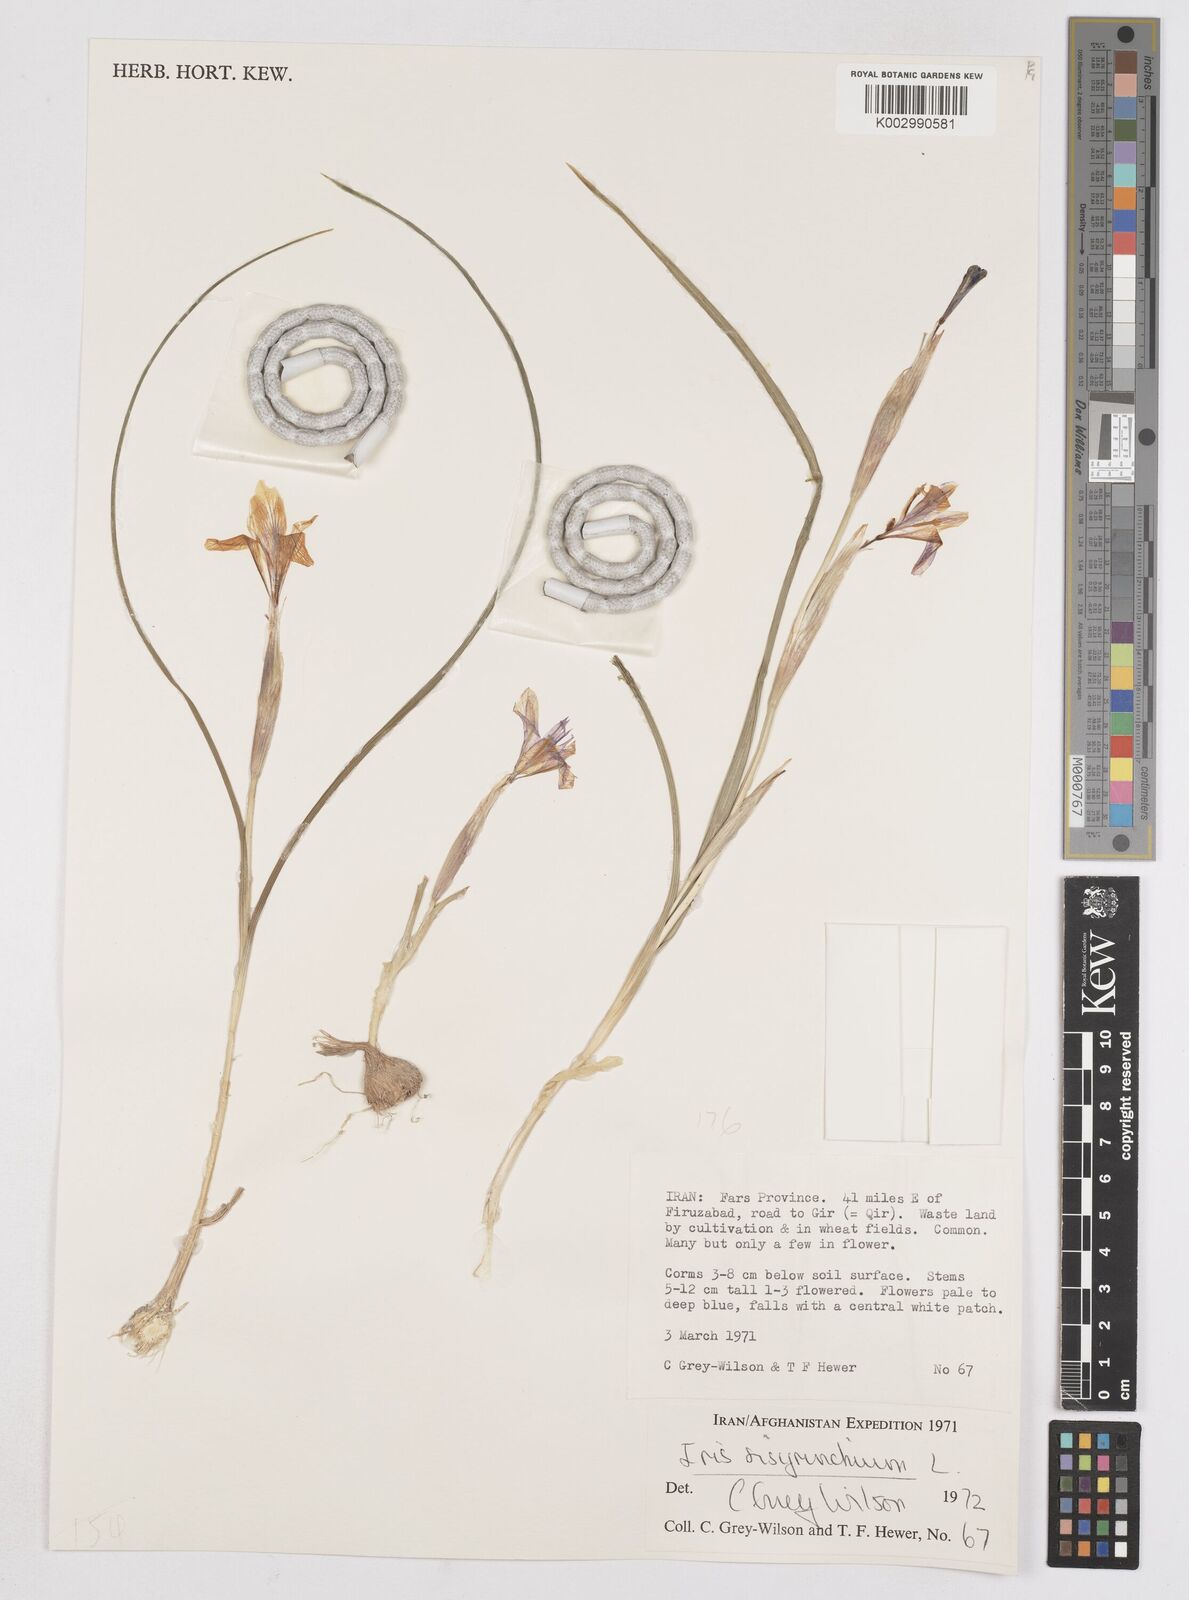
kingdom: Plantae
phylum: Tracheophyta
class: Liliopsida
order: Asparagales
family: Iridaceae
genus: Moraea
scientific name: Moraea sisyrinchium
